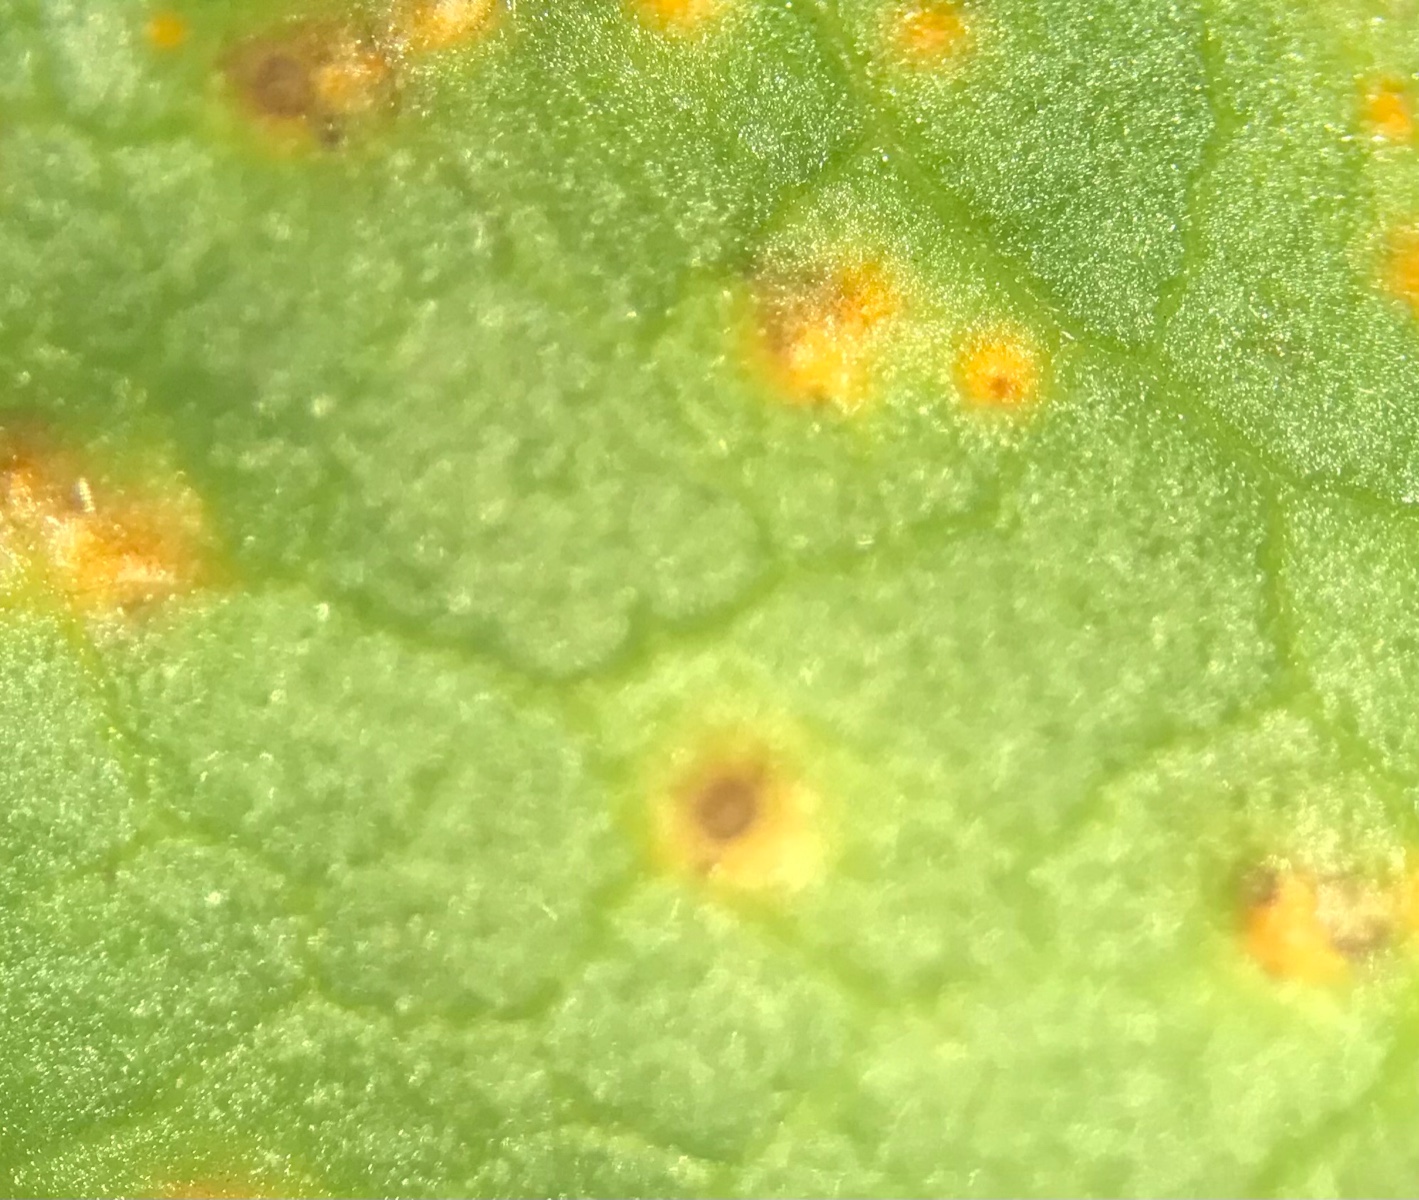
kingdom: Fungi
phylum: Basidiomycota
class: Pucciniomycetes
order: Pucciniales
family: Pucciniaceae
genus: Puccinia
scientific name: Puccinia malvacearum
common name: stokrose-tvecellerust
